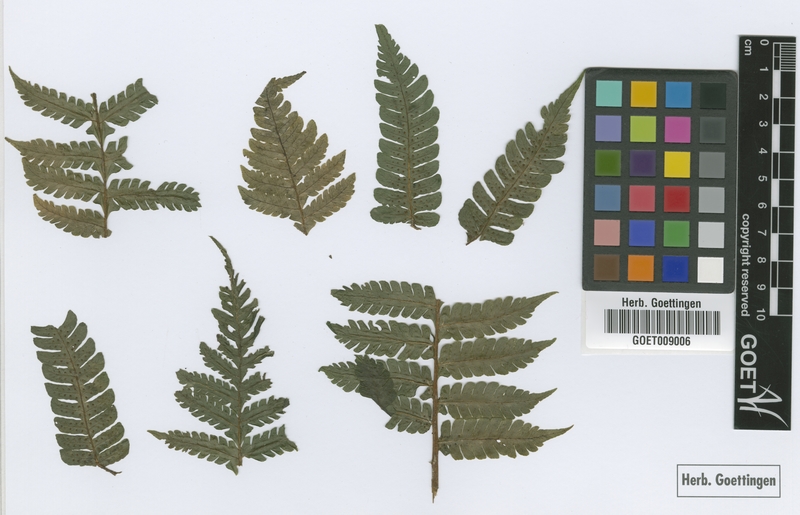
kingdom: Plantae
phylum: Tracheophyta
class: Polypodiopsida
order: Polypodiales
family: Dryopteridaceae
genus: Megalastrum
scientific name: Megalastrum aureisquama
